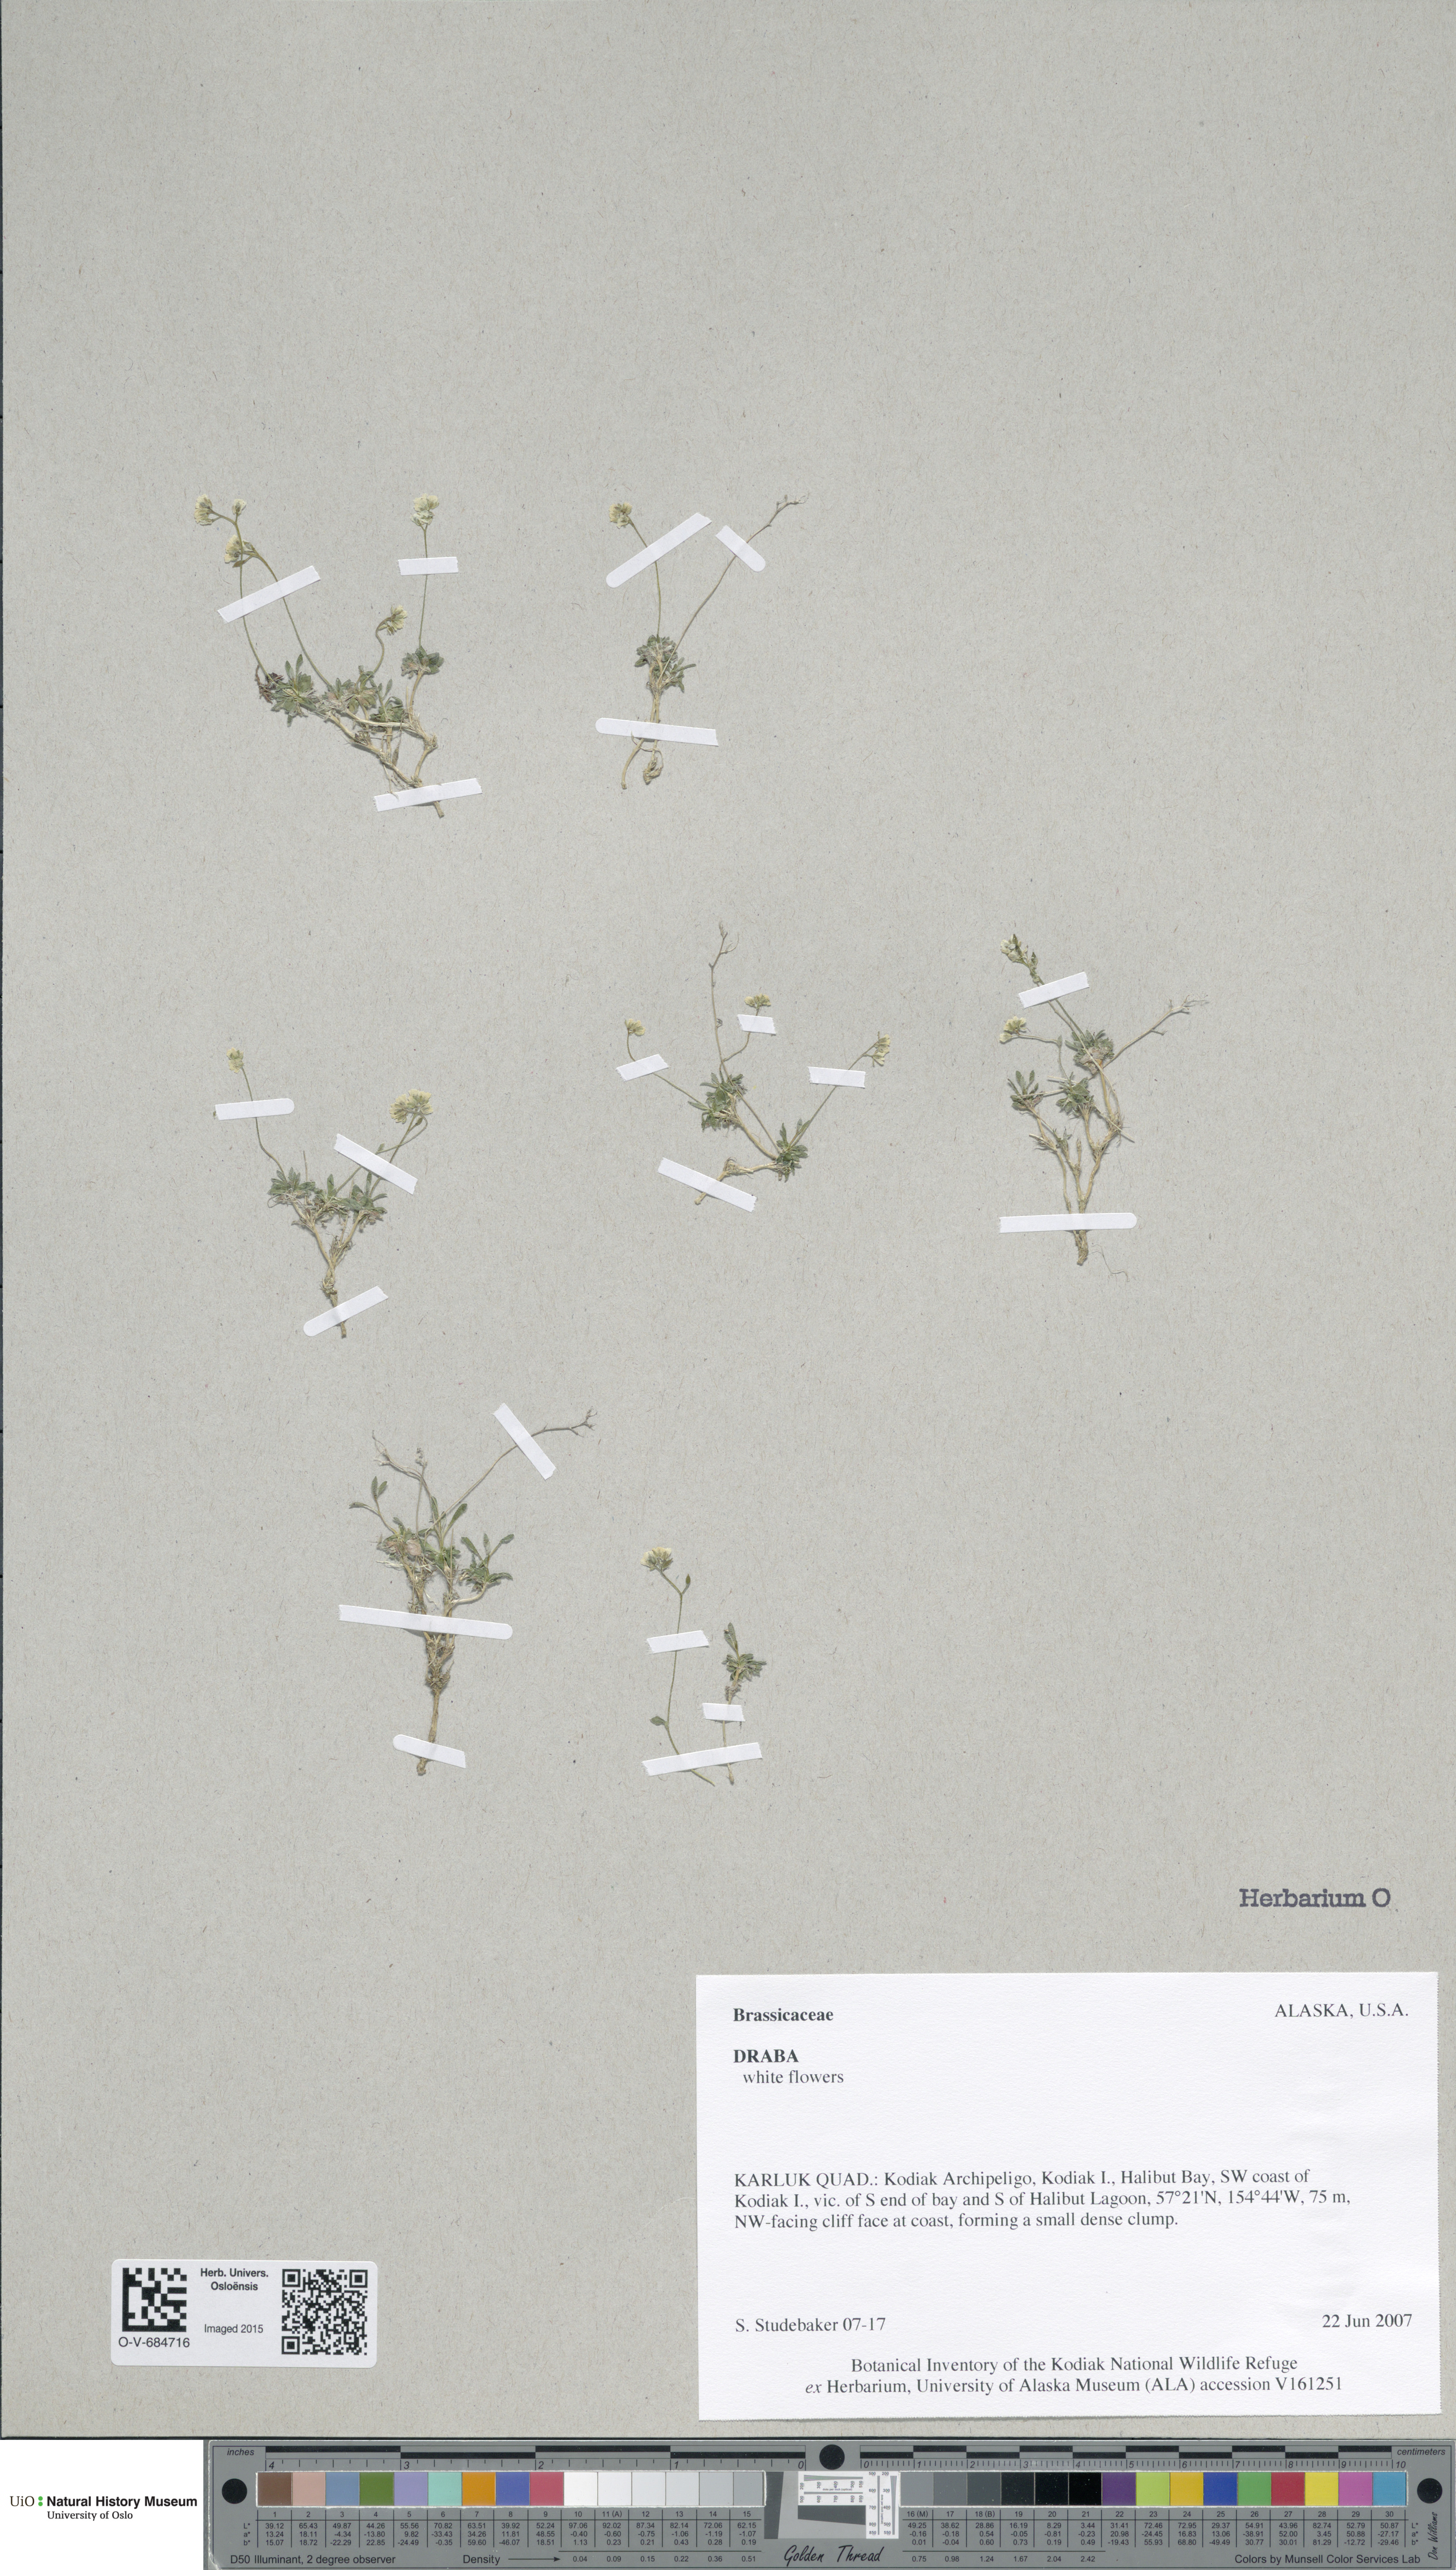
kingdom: Plantae
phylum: Tracheophyta
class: Magnoliopsida
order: Brassicales
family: Brassicaceae
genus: Draba
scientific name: Draba
